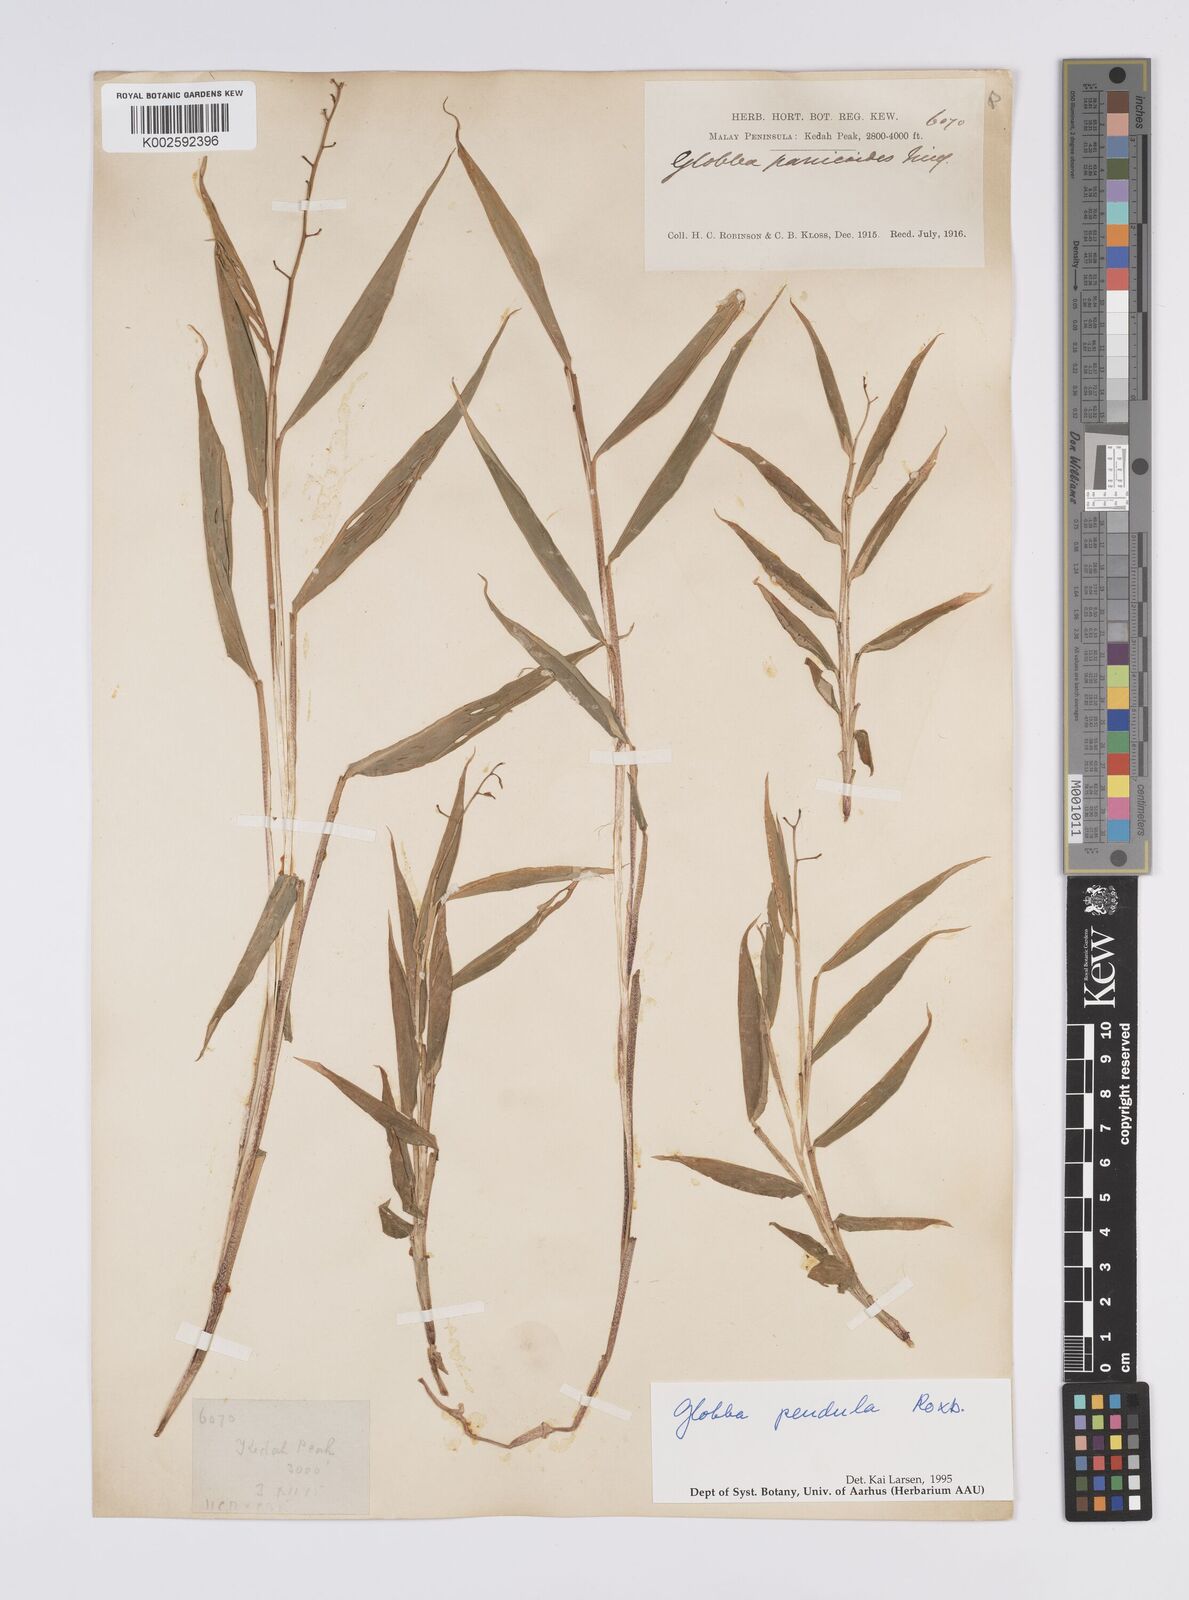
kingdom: Plantae
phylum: Tracheophyta
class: Liliopsida
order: Zingiberales
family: Zingiberaceae
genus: Globba
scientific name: Globba pendula
